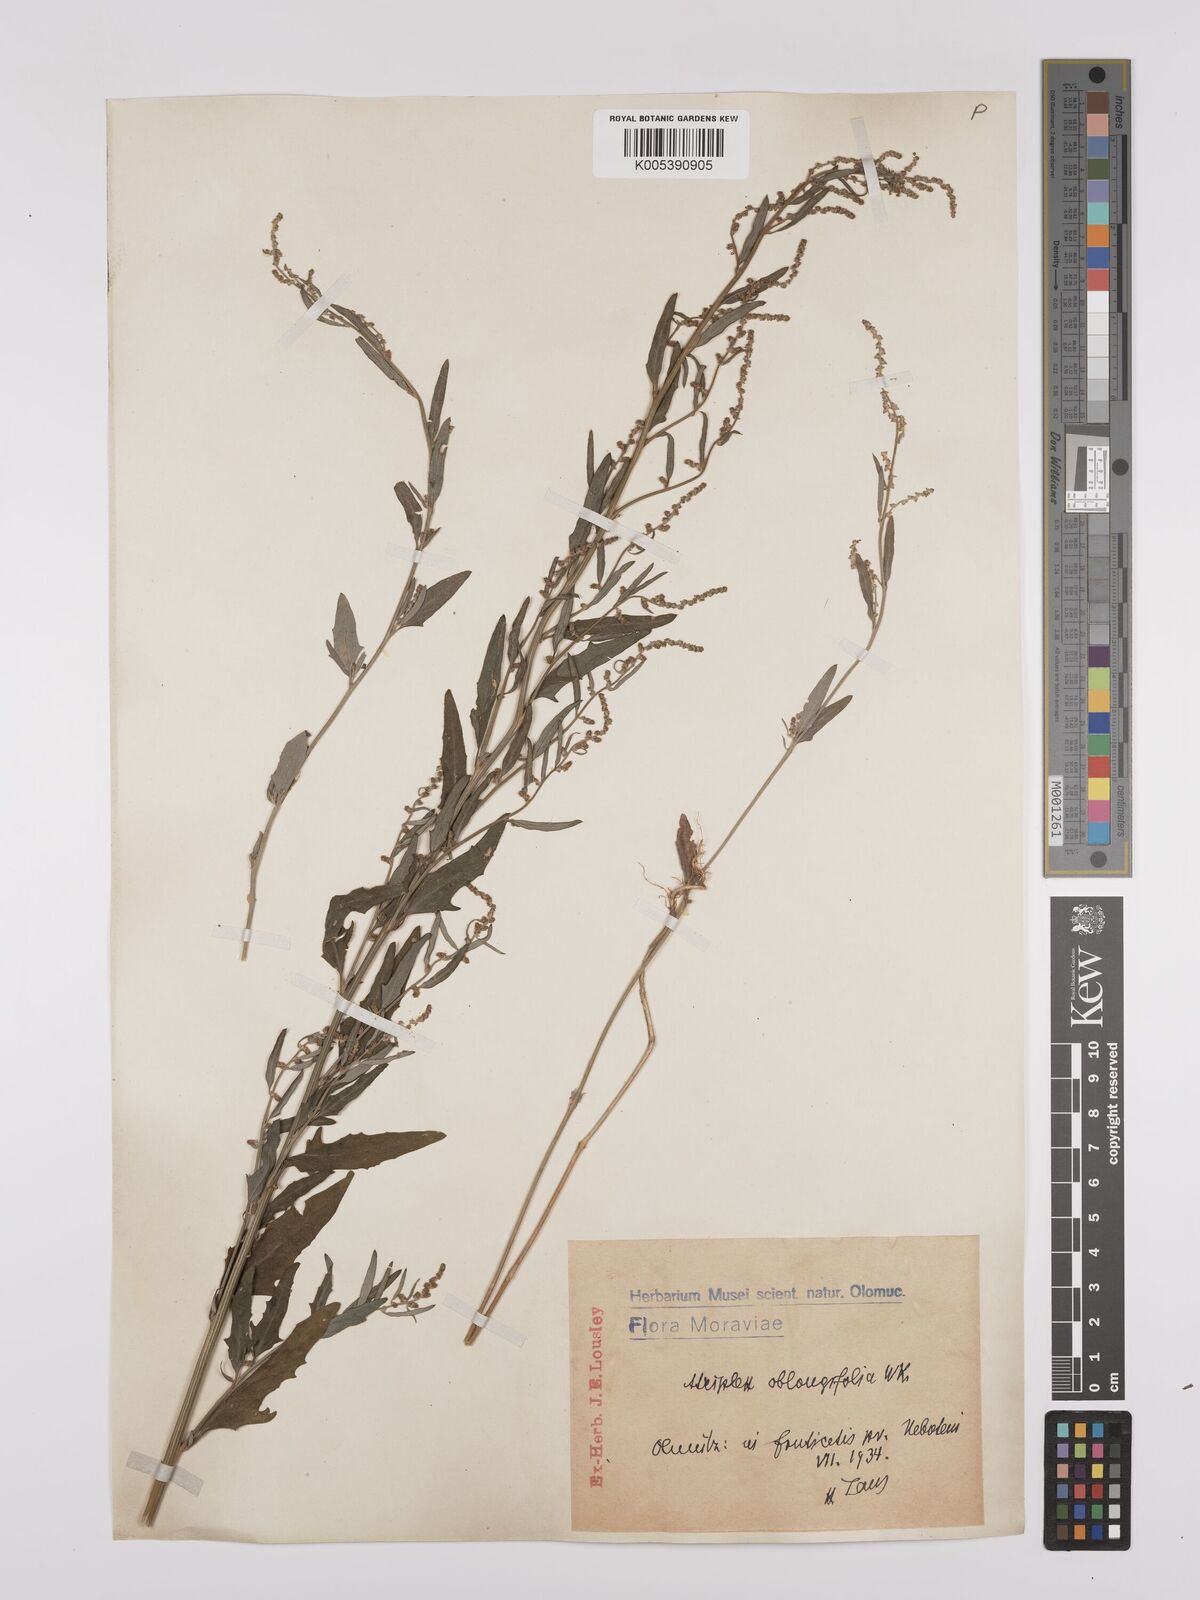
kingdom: Plantae
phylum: Tracheophyta
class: Magnoliopsida
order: Caryophyllales
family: Amaranthaceae
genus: Atriplex
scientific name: Atriplex
